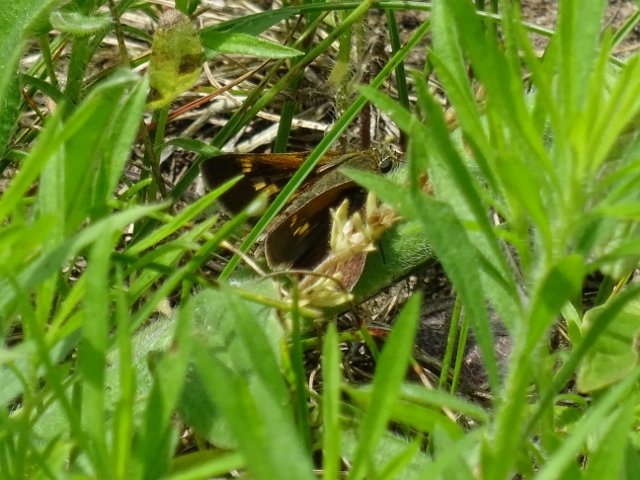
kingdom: Animalia
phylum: Arthropoda
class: Insecta
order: Lepidoptera
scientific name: Lepidoptera
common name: Butterflies
